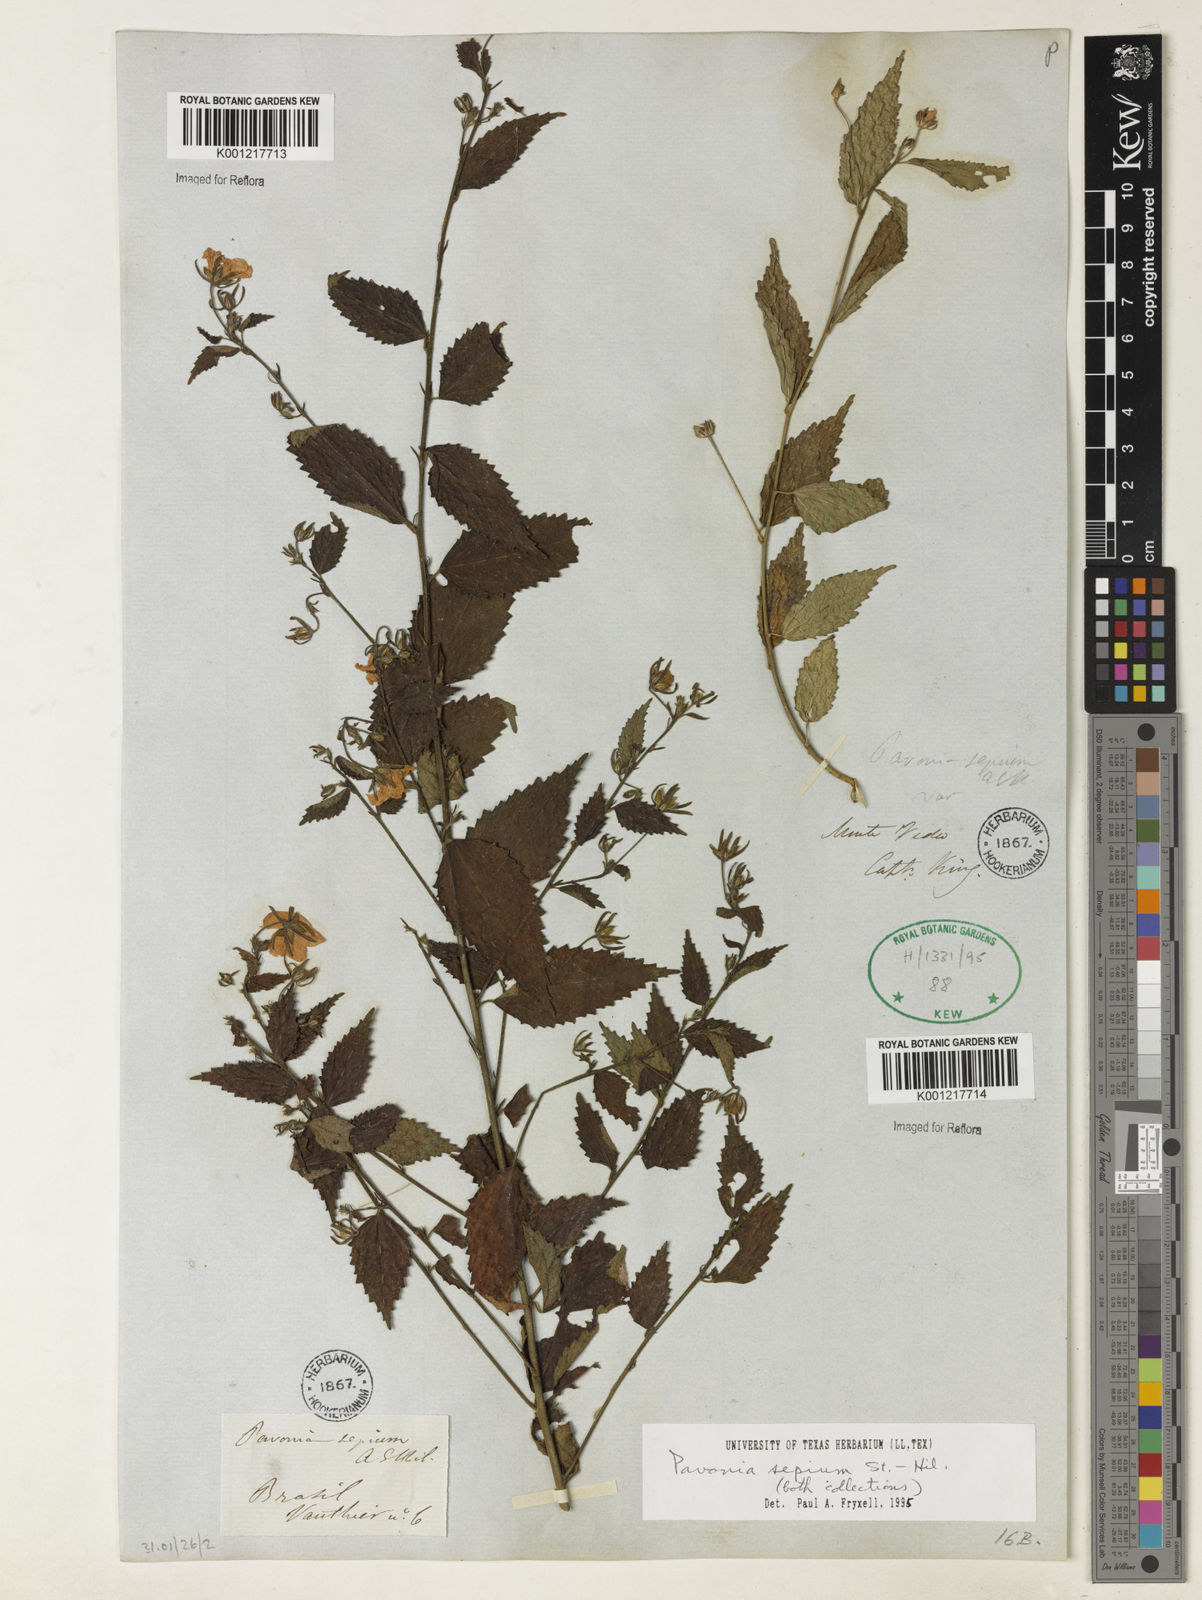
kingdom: Plantae
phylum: Tracheophyta
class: Magnoliopsida
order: Malvales
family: Malvaceae
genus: Pavonia
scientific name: Pavonia sepium
